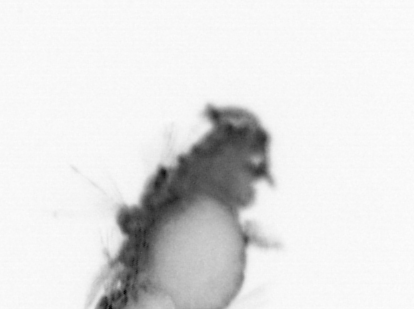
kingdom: Animalia
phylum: Annelida
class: Polychaeta
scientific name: Polychaeta
